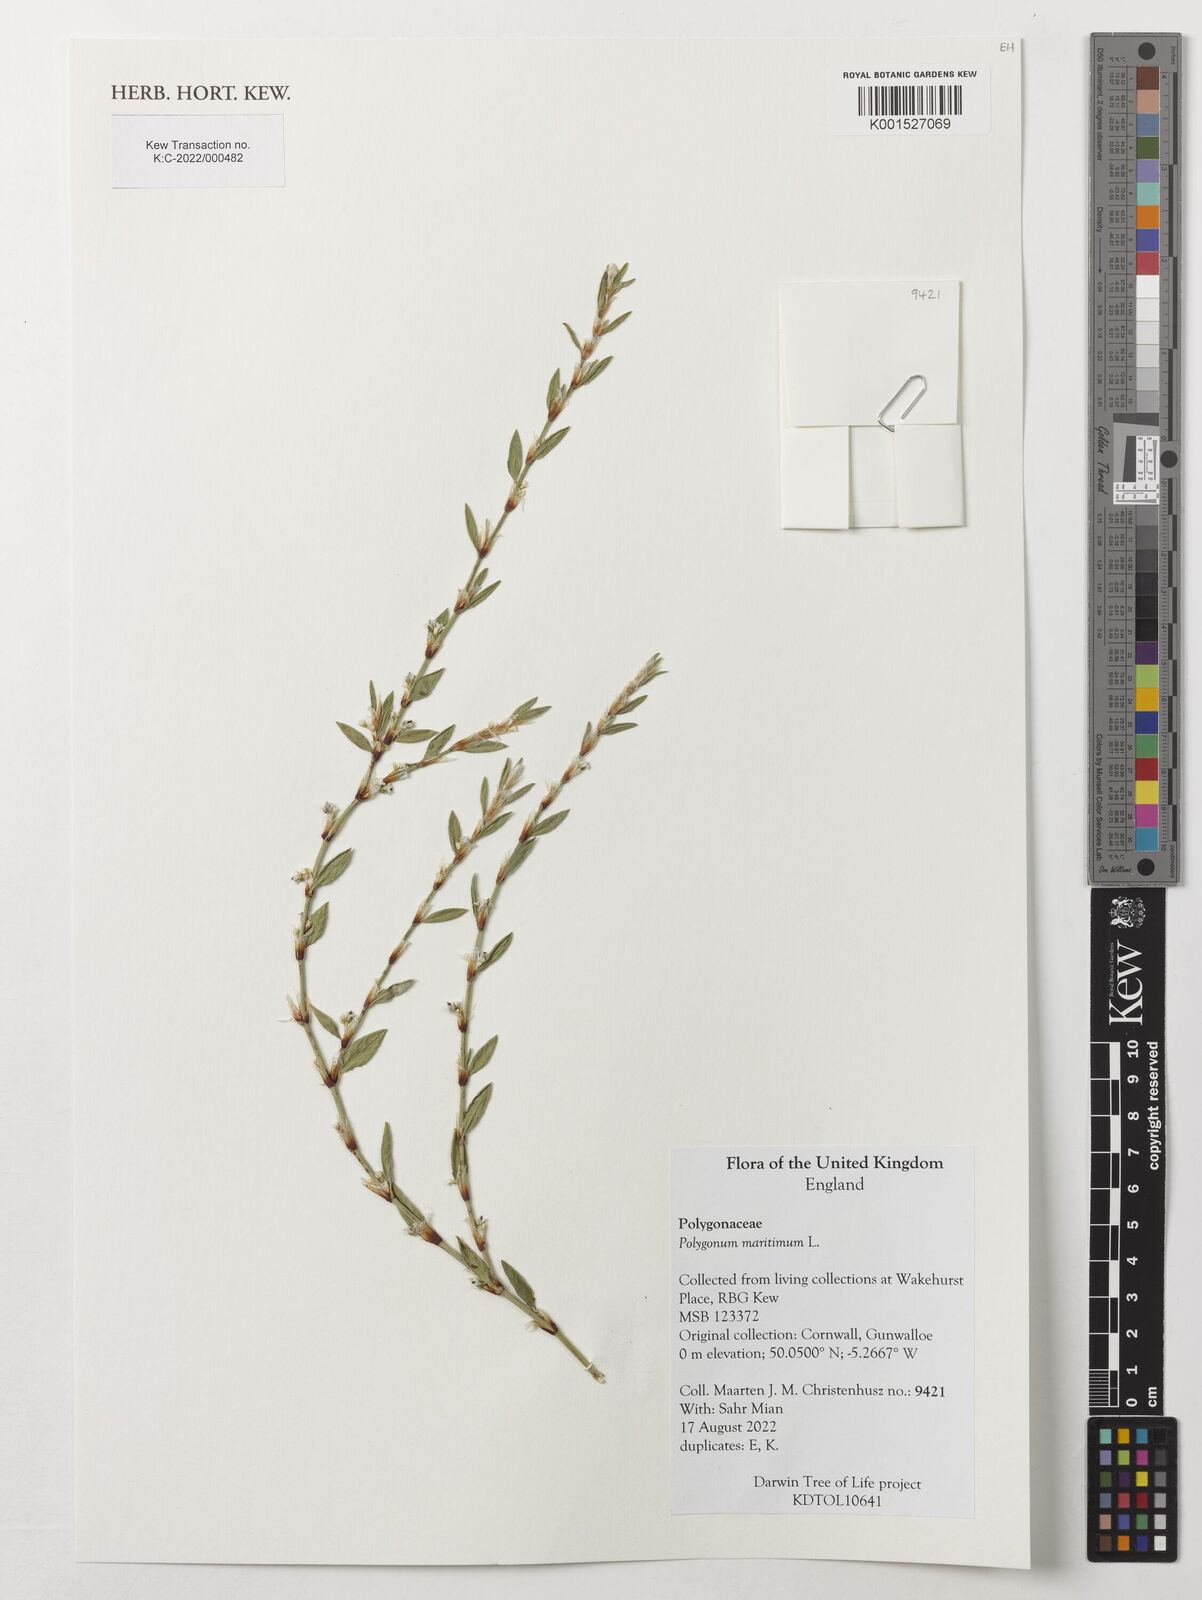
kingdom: Plantae
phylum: Tracheophyta
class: Magnoliopsida
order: Caryophyllales
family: Polygonaceae
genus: Polygonum
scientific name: Polygonum maritimum
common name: Sea knotgrass
